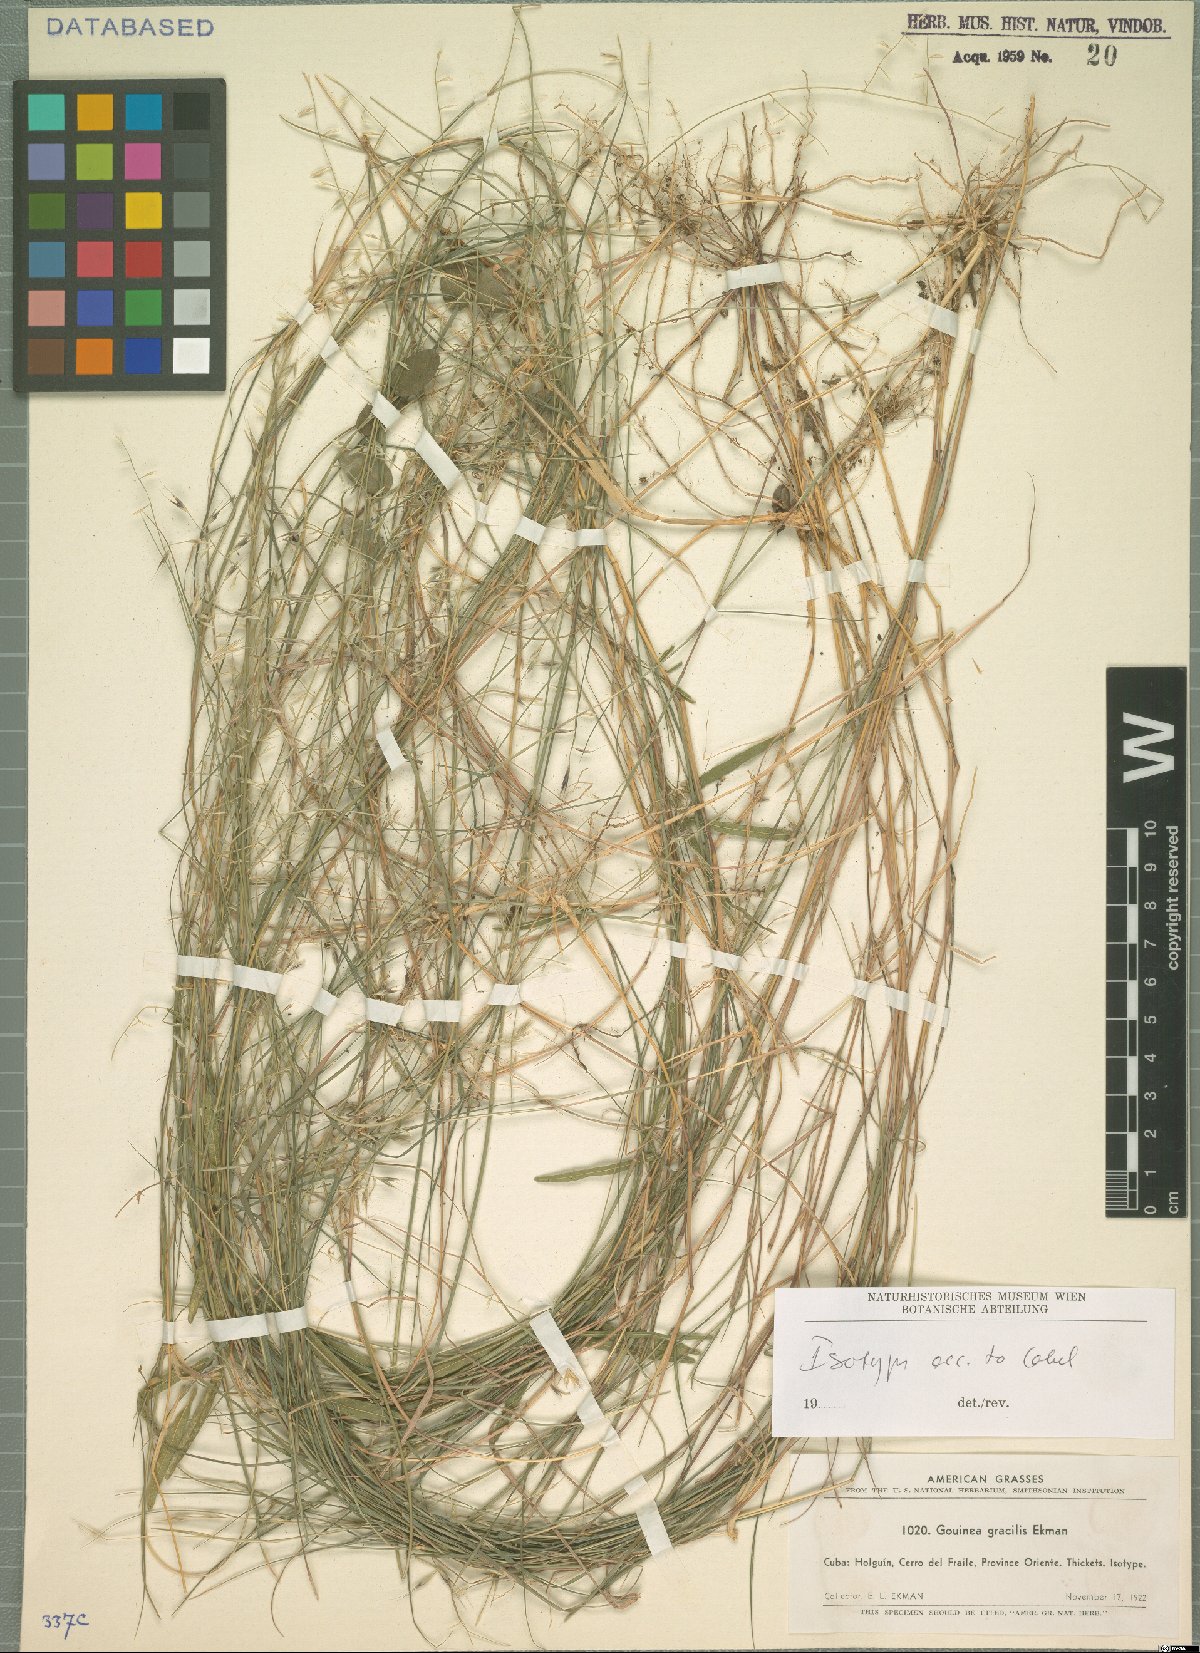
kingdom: Plantae
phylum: Tracheophyta
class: Liliopsida
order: Poales
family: Poaceae
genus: Gouinia
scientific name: Gouinia gracilis
